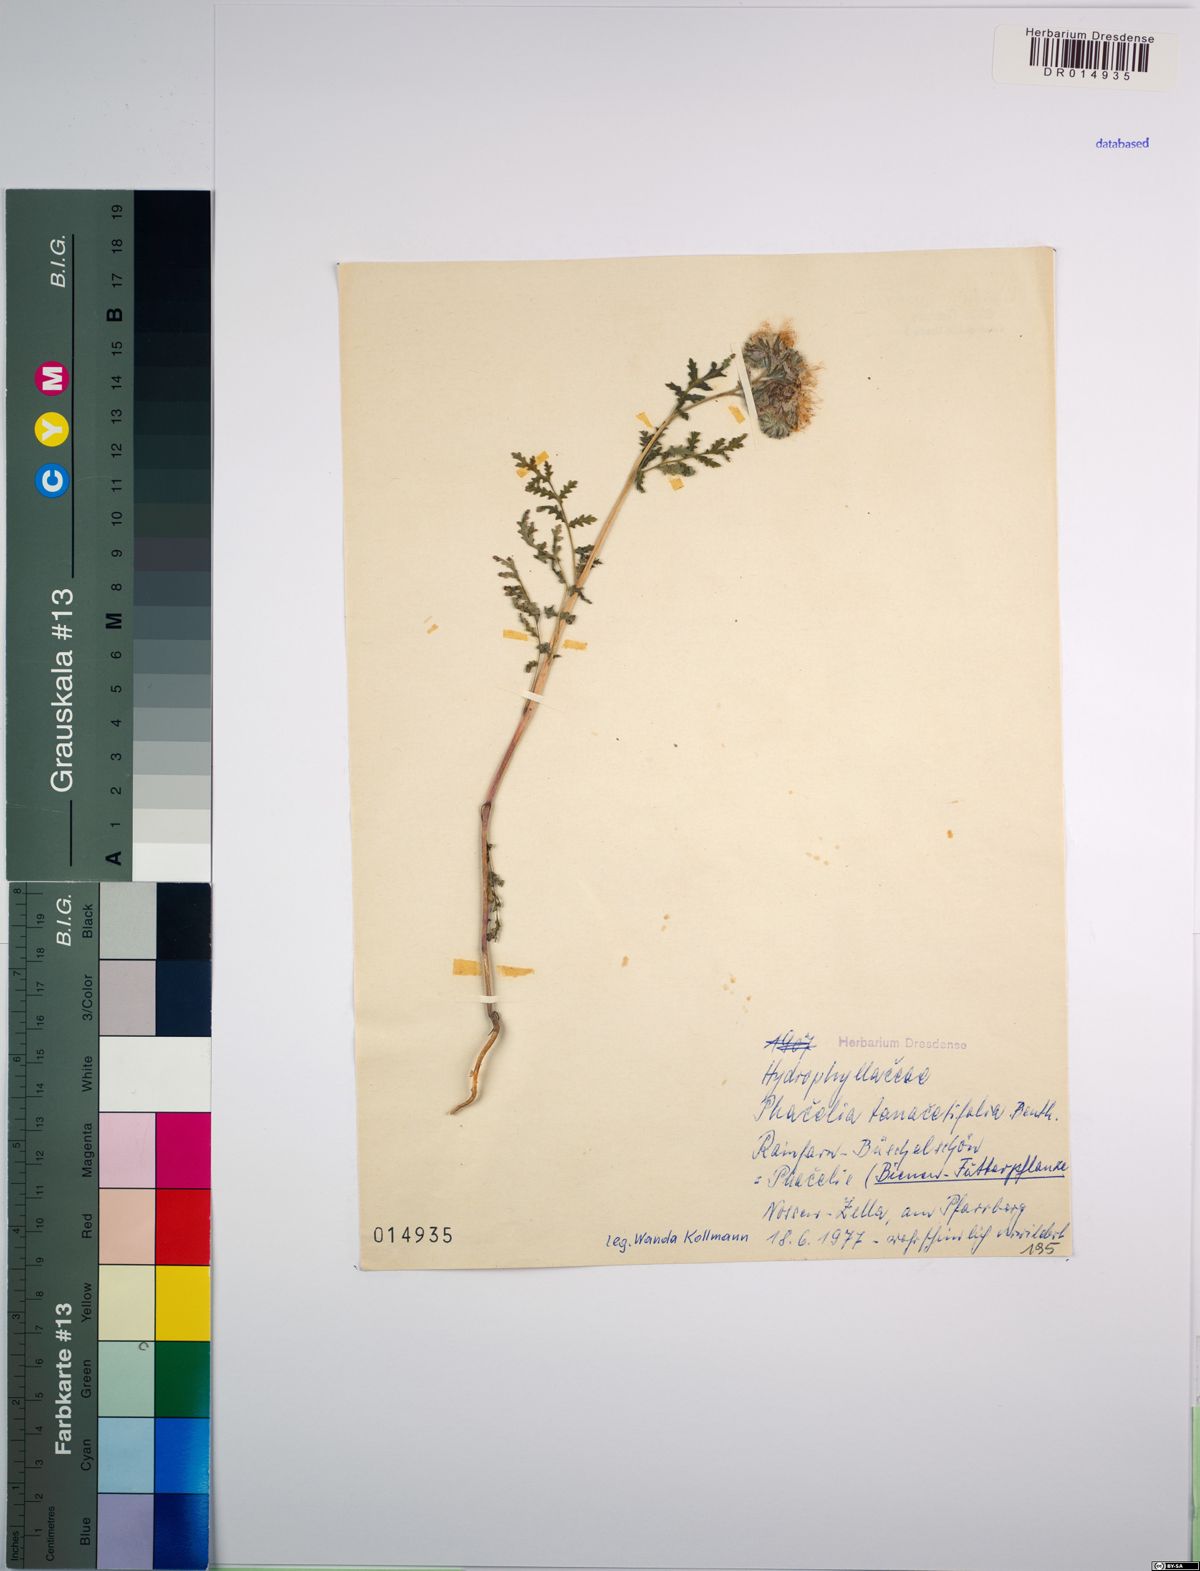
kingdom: Plantae
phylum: Tracheophyta
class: Magnoliopsida
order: Boraginales
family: Hydrophyllaceae
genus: Phacelia
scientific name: Phacelia tanacetifolia
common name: Phacelia
